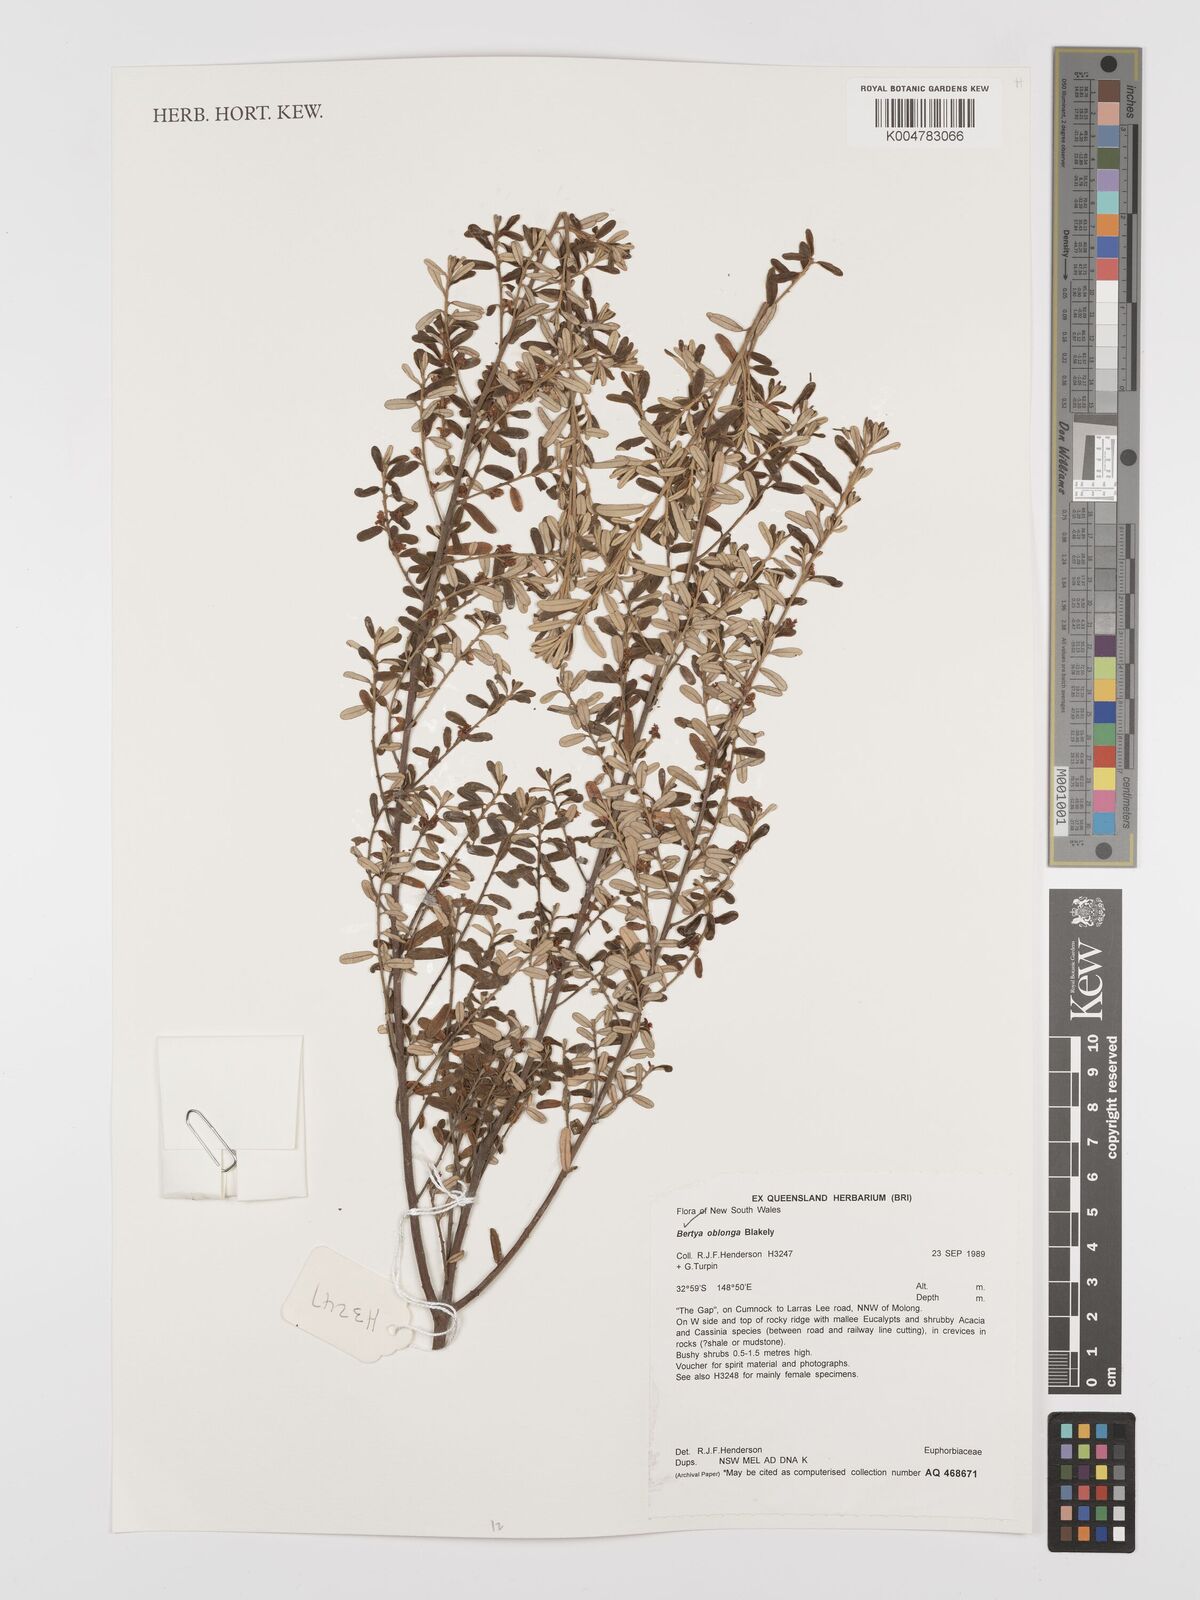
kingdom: Plantae
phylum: Tracheophyta
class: Magnoliopsida
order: Malpighiales
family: Euphorbiaceae
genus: Bertya
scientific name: Bertya oblonga
